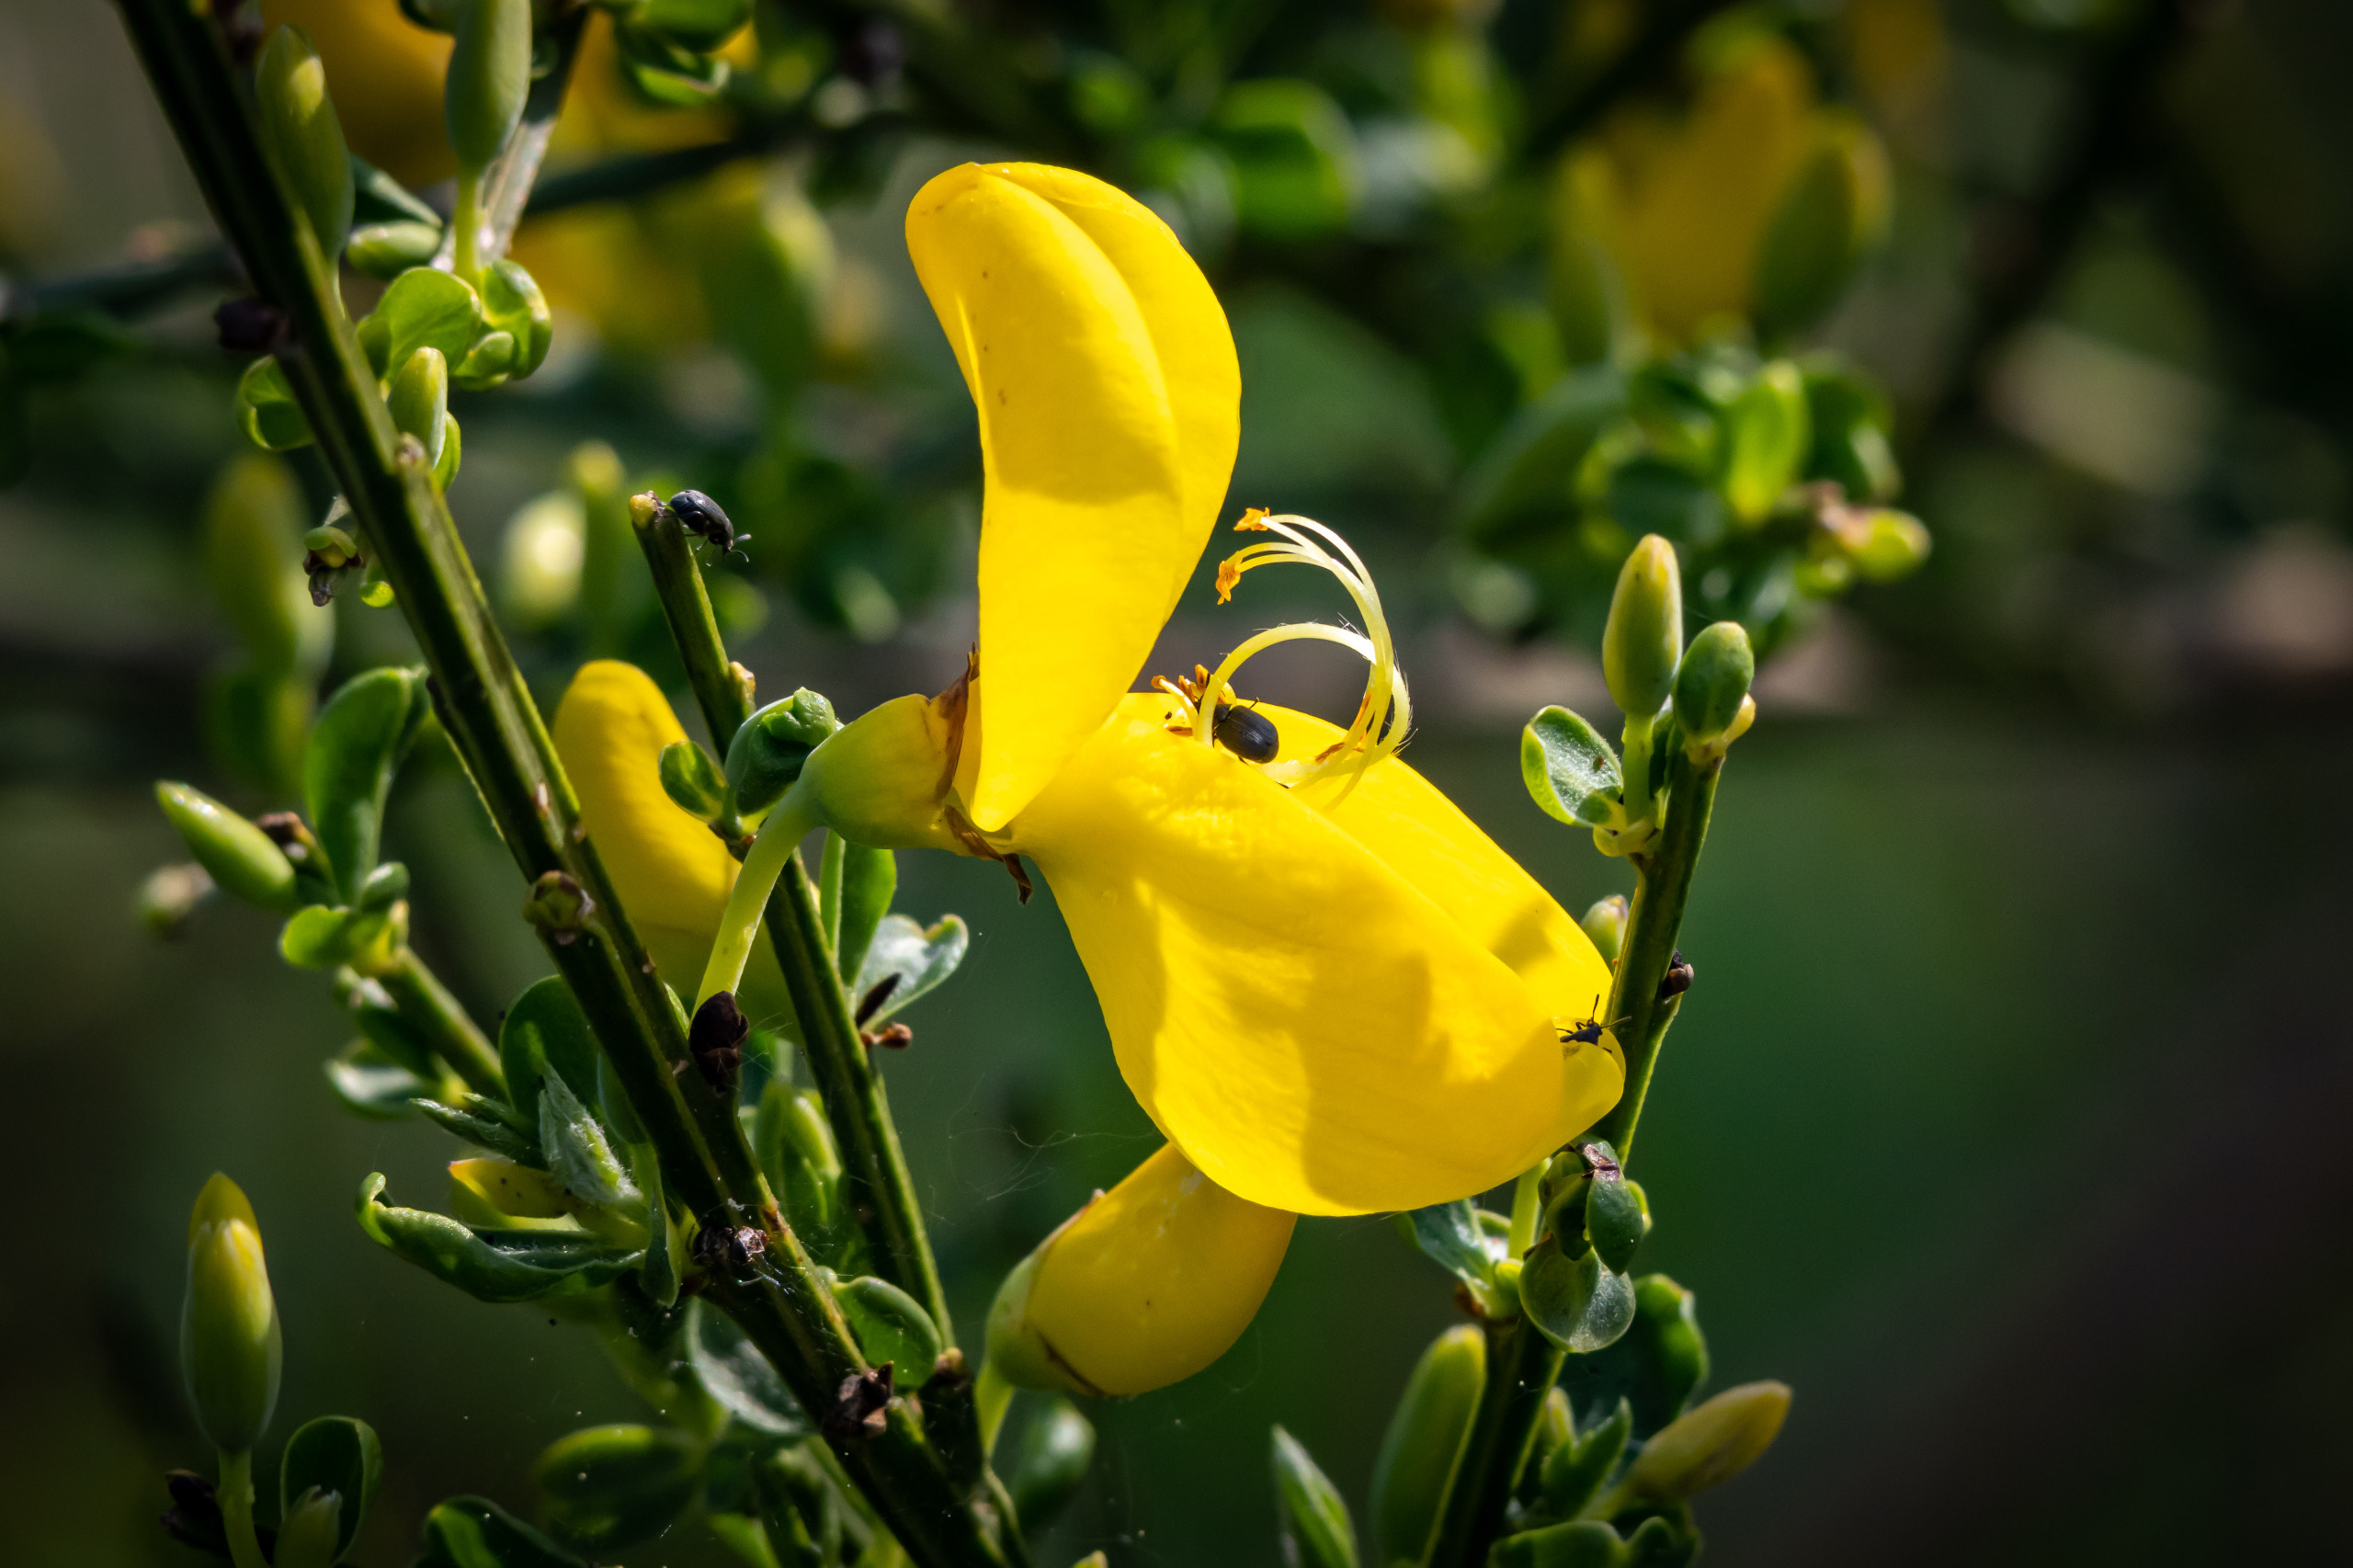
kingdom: Plantae
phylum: Tracheophyta
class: Magnoliopsida
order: Fabales
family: Fabaceae
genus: Cytisus
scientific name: Cytisus scoparius
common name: Almindelig gyvel
